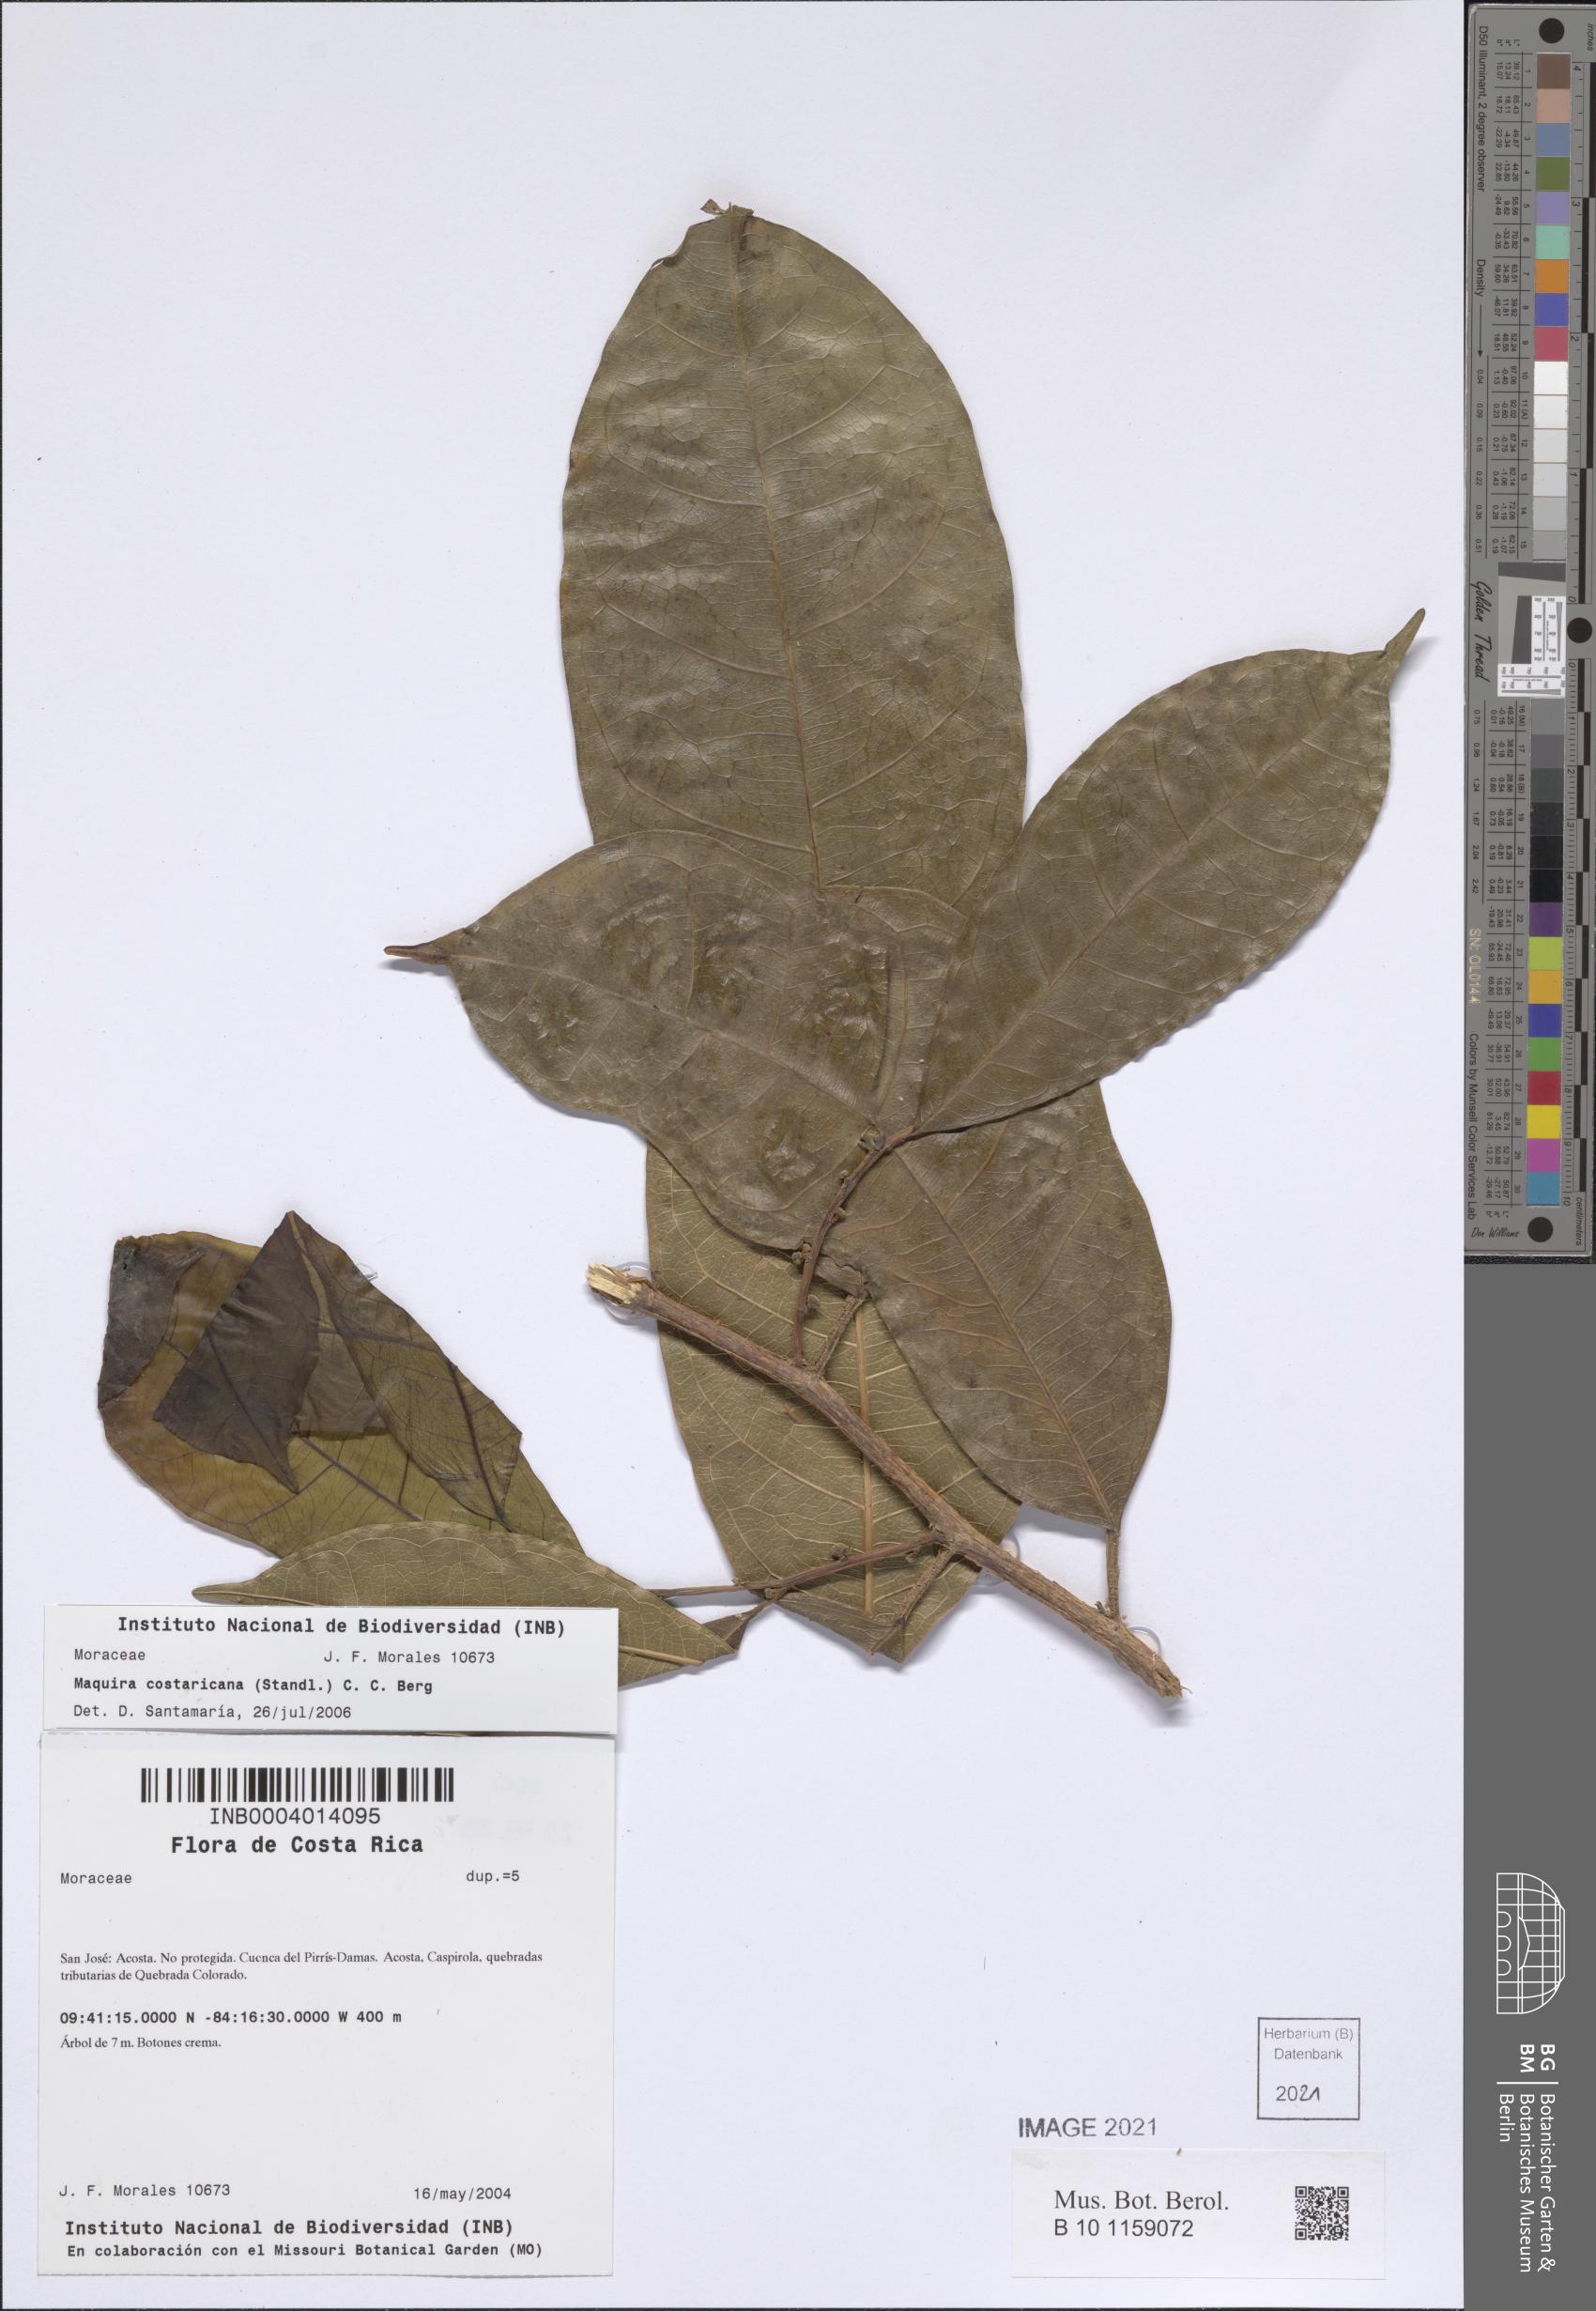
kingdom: Plantae
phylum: Tracheophyta
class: Magnoliopsida
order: Rosales
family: Moraceae
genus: Maquira
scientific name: Maquira guianensis
